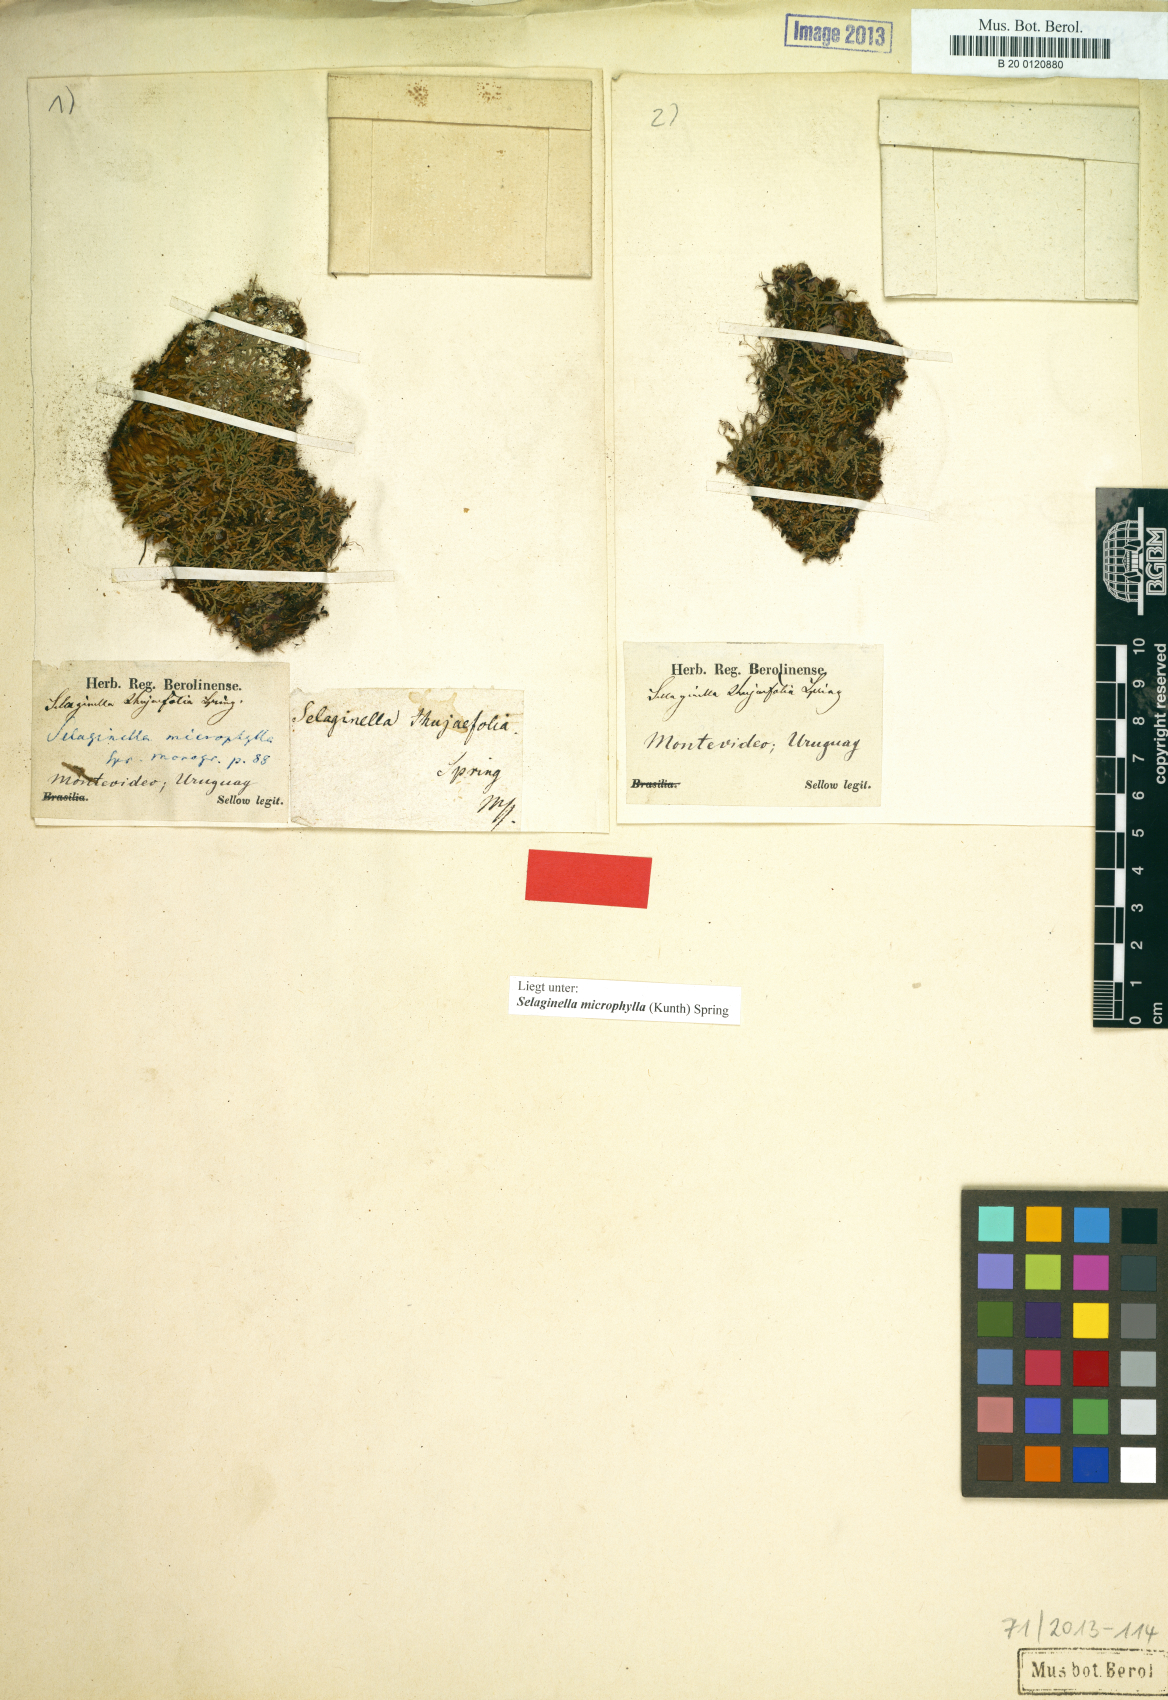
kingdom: Plantae
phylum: Tracheophyta
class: Lycopodiopsida
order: Selaginellales
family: Selaginellaceae
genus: Selaginella
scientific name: Selaginella microphylla
